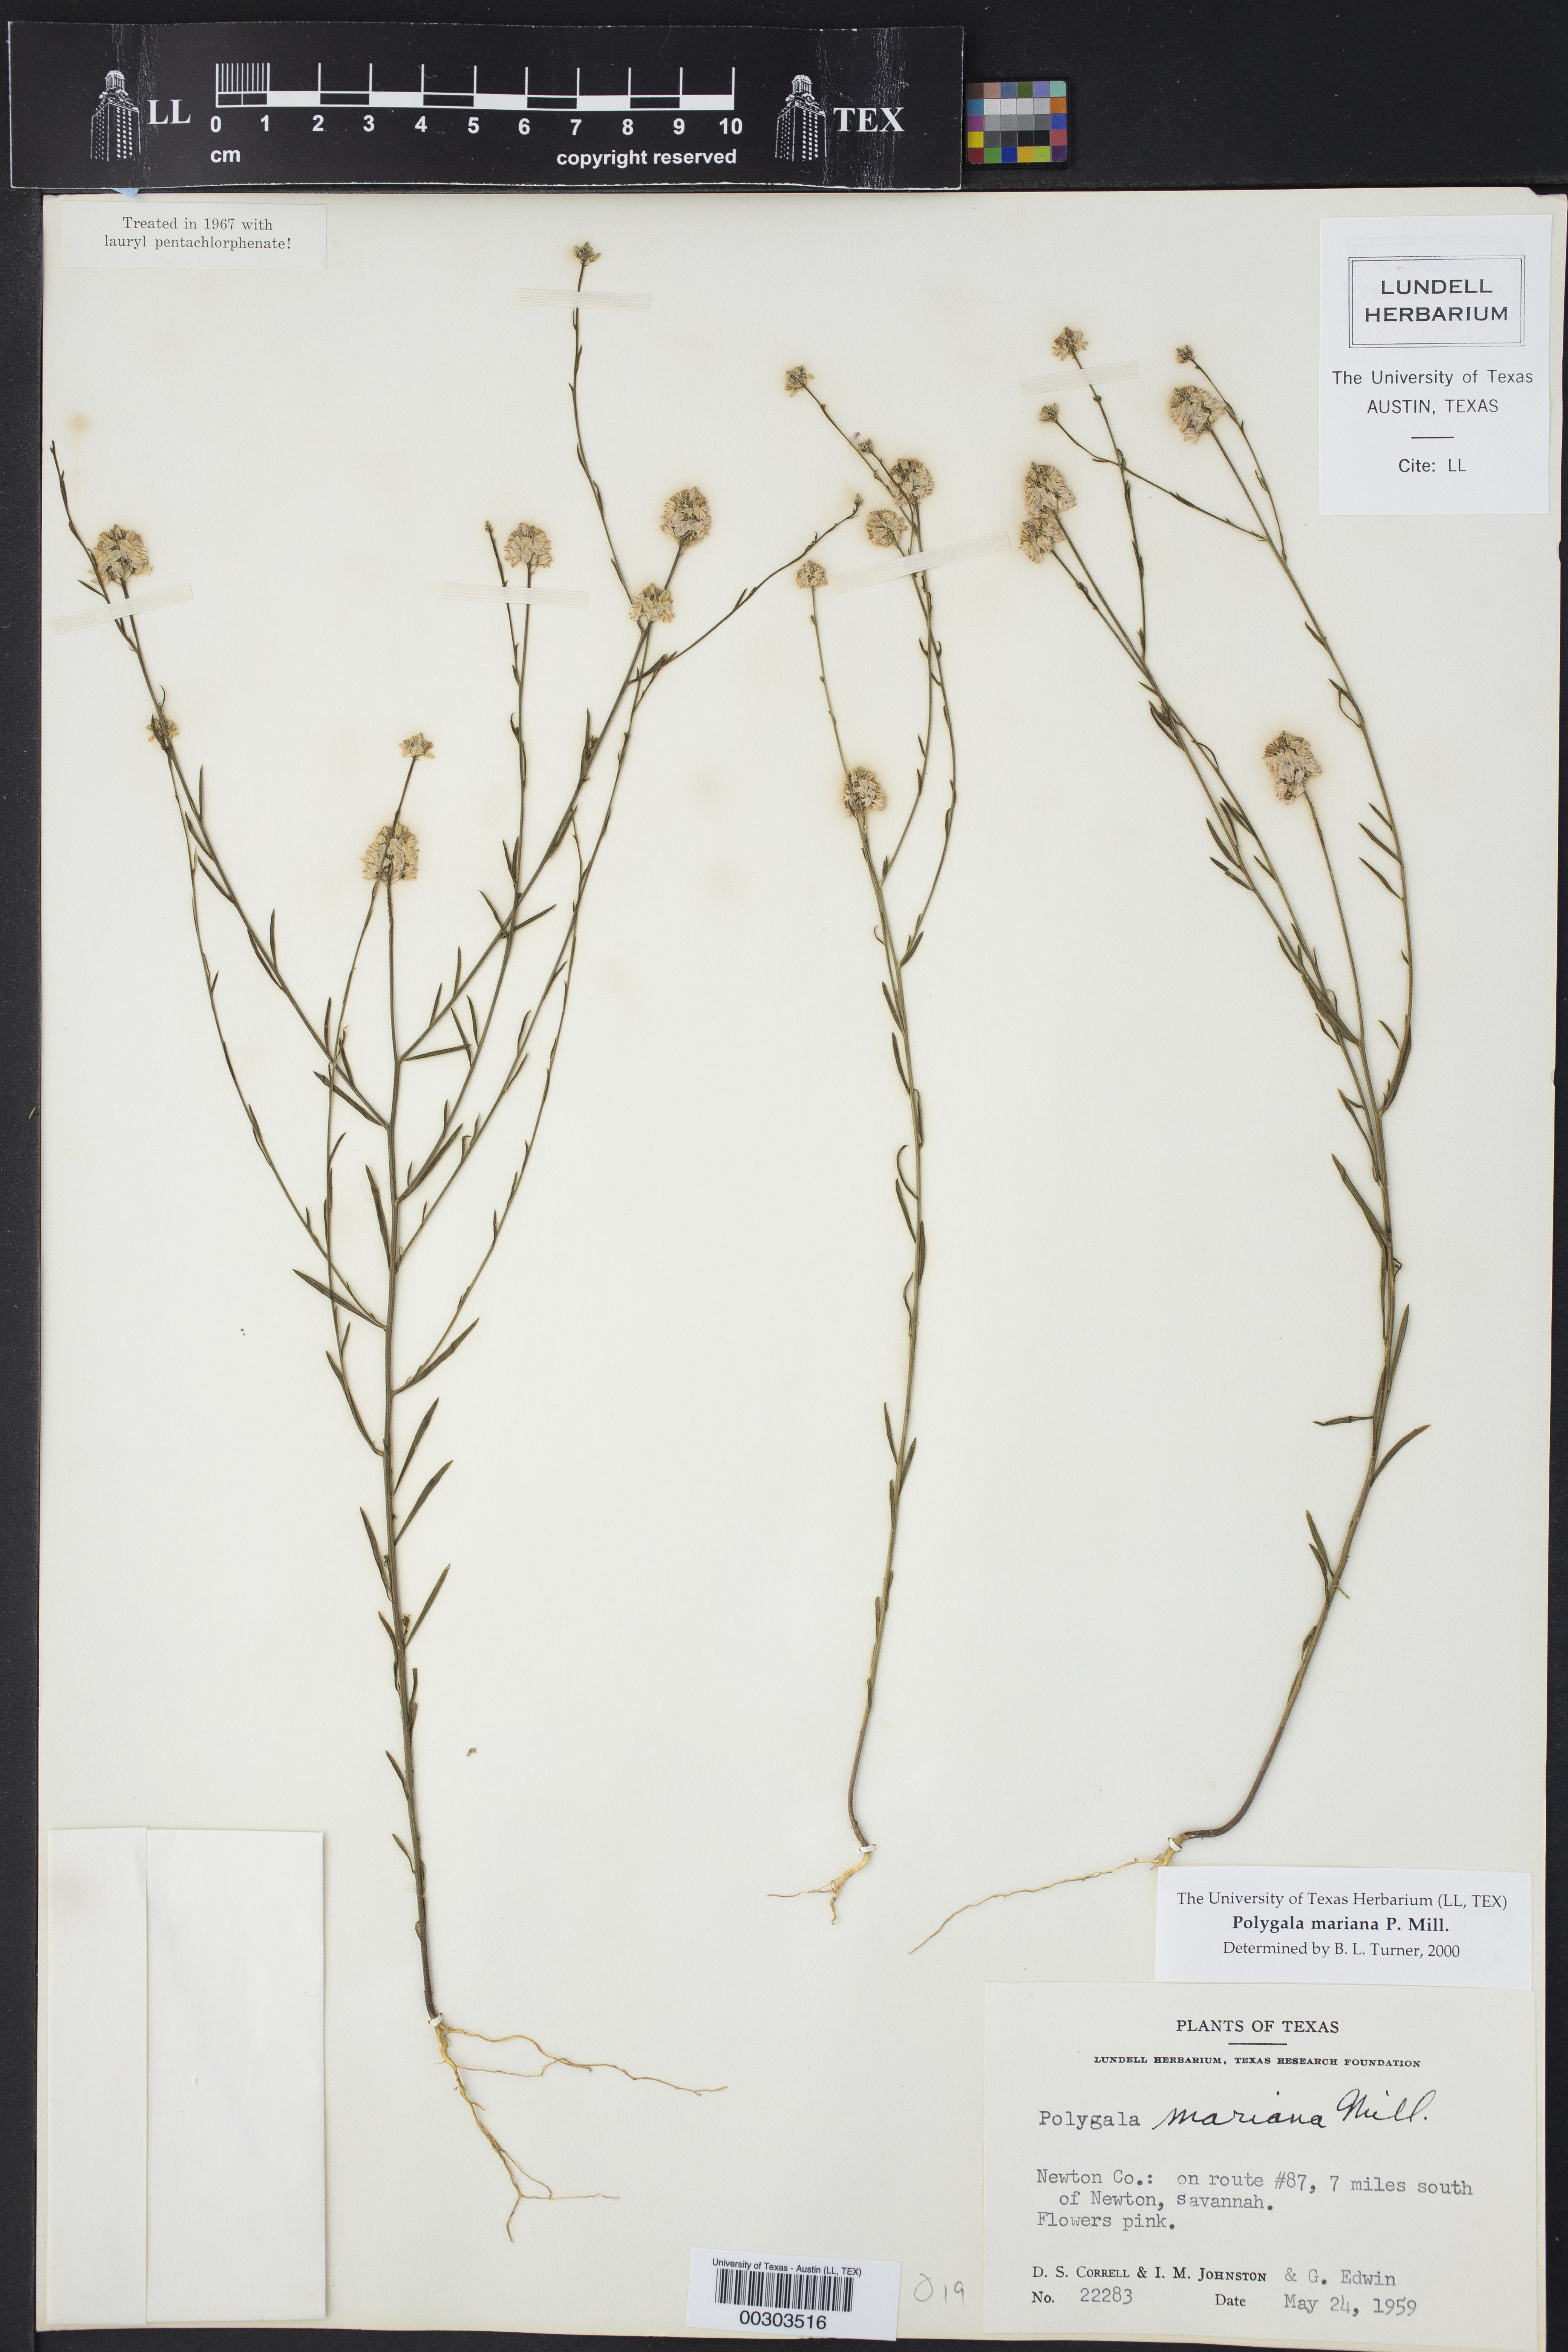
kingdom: Plantae
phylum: Tracheophyta
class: Magnoliopsida
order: Fabales
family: Polygalaceae
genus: Polygala
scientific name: Polygala mariana
